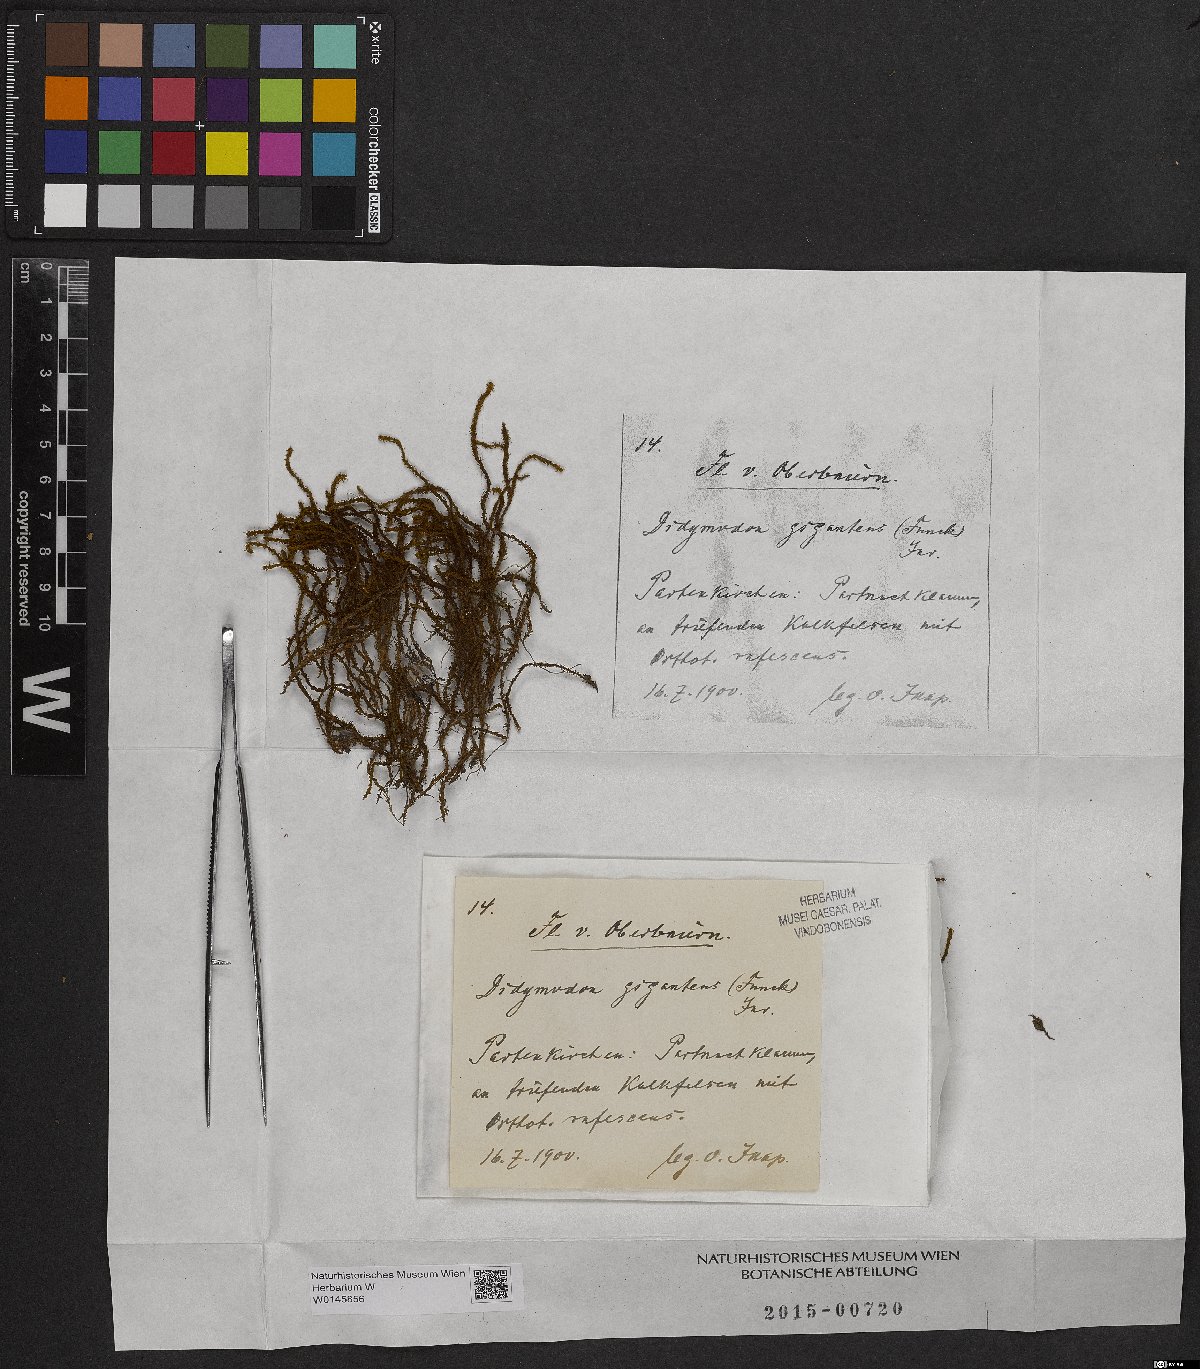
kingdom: Plantae
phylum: Bryophyta
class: Bryopsida
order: Pottiales
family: Pottiaceae
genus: Geheebia
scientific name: Geheebia gigantea
